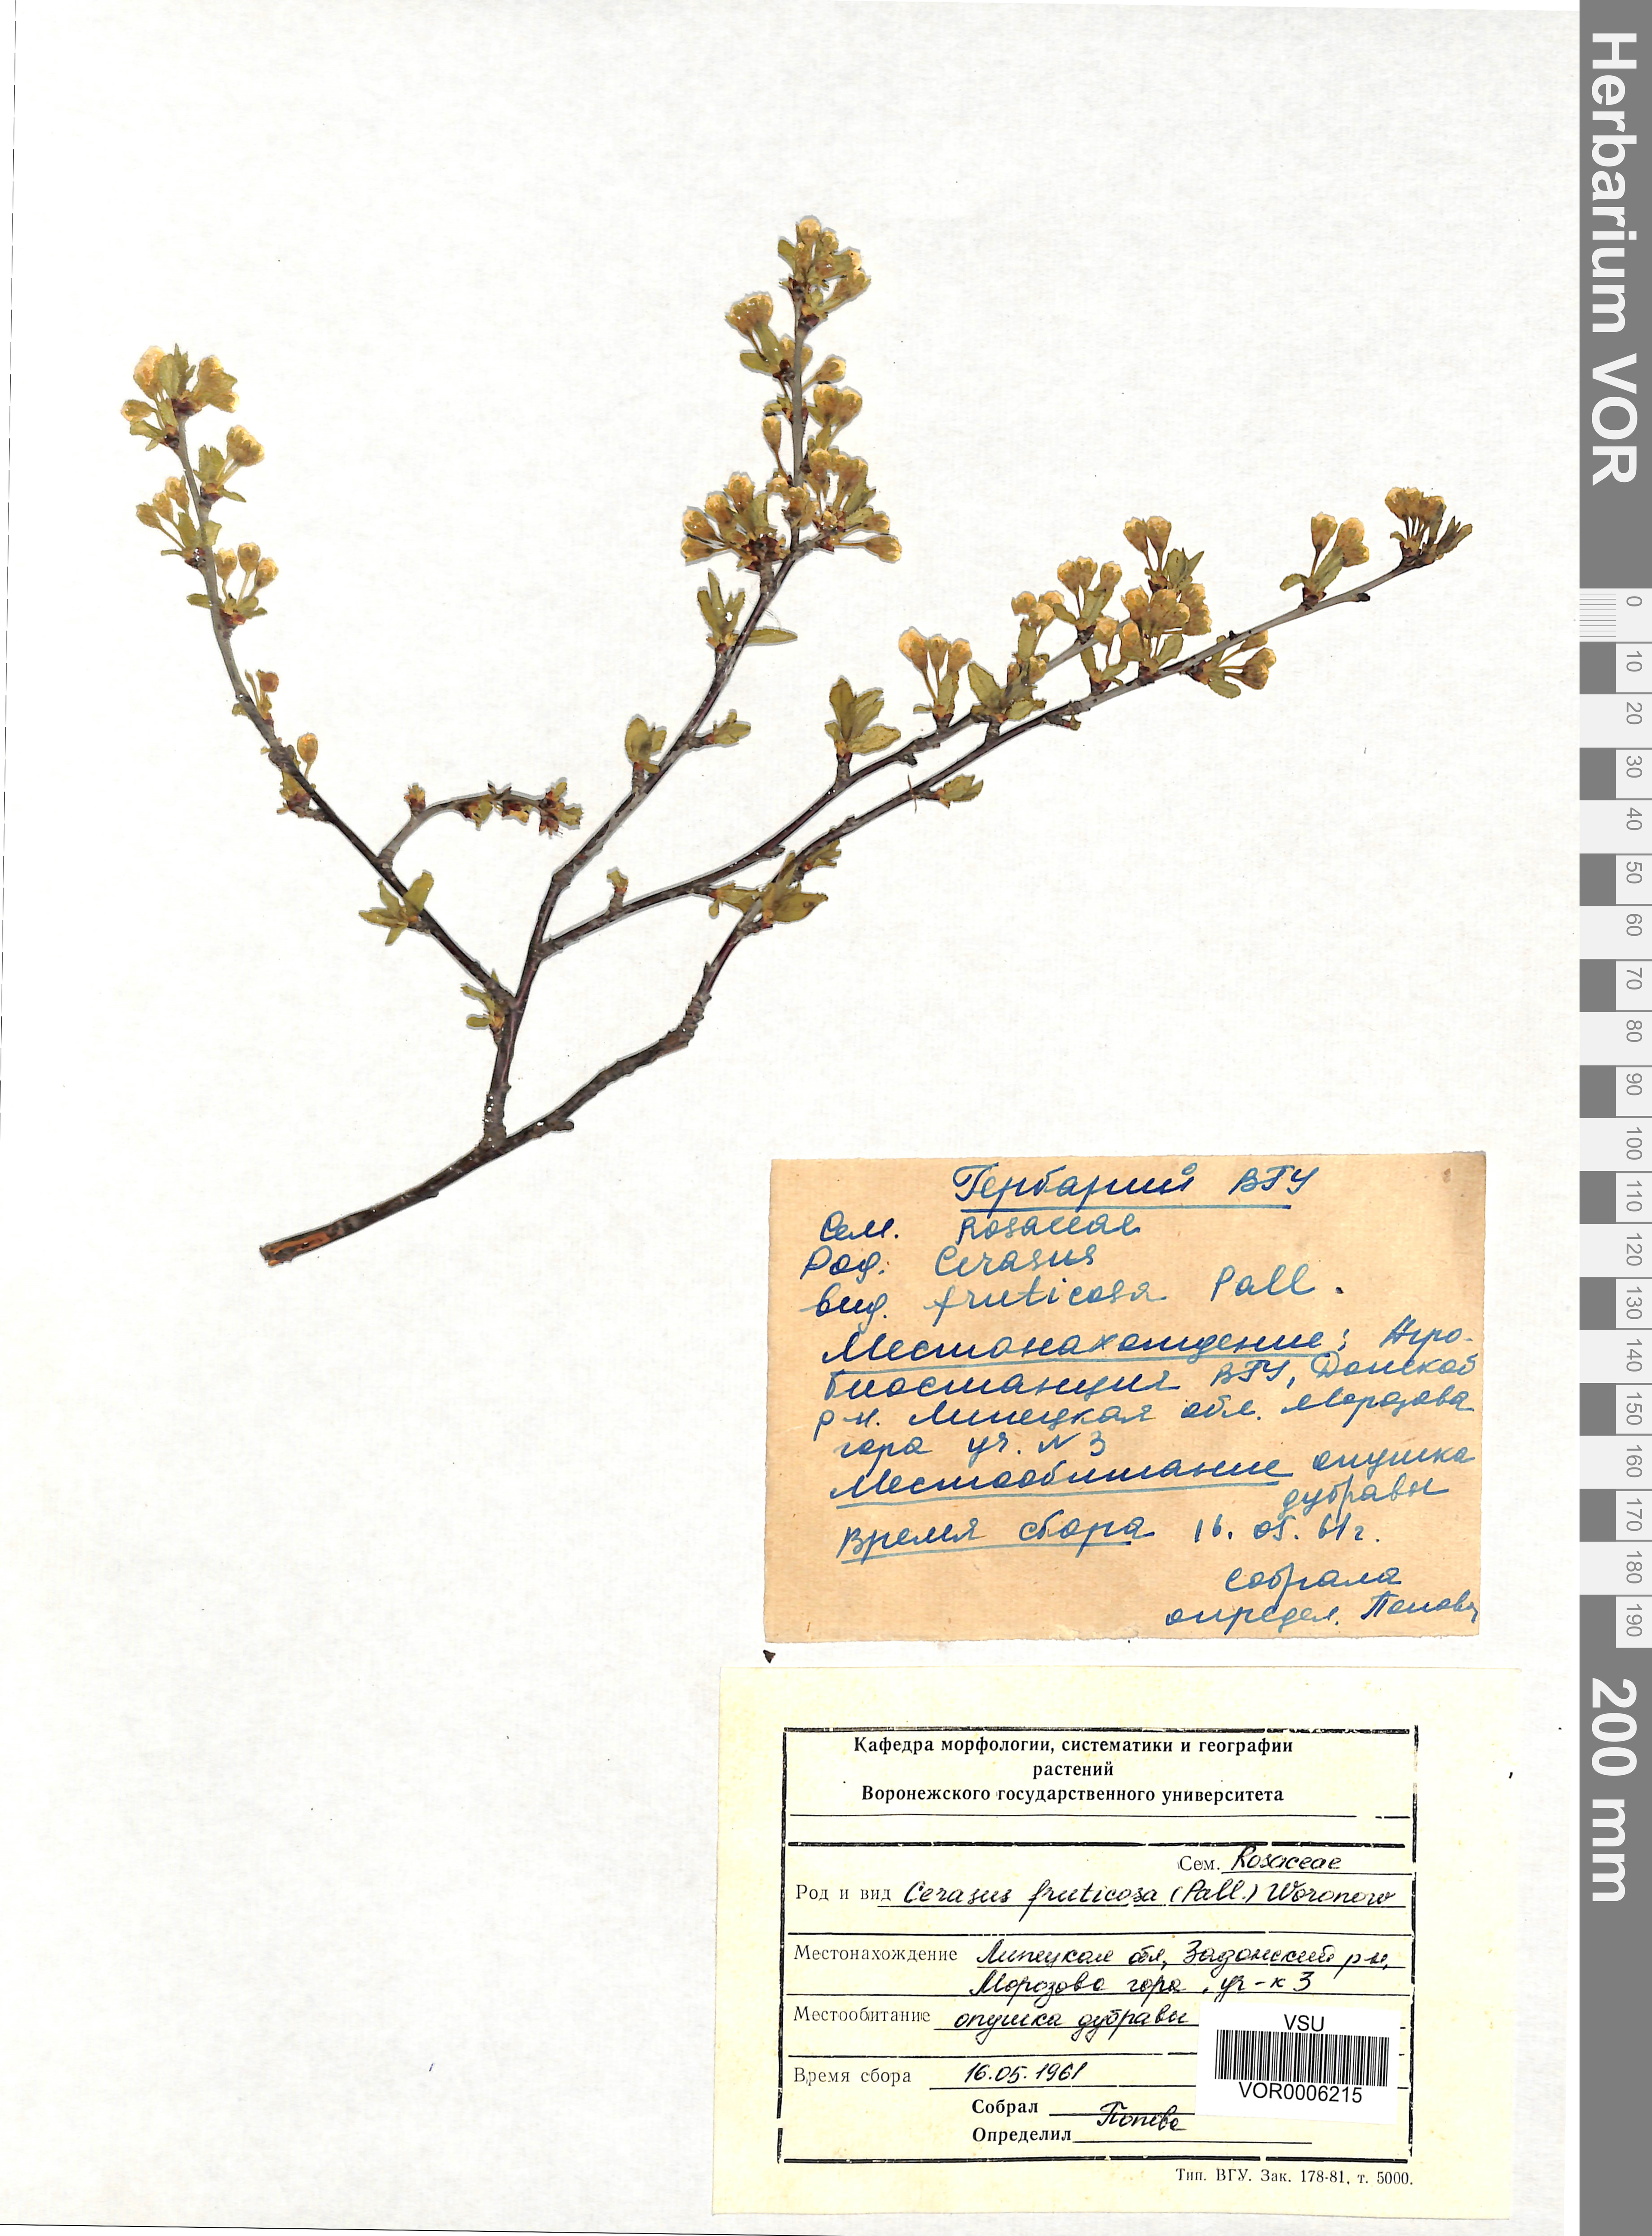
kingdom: Plantae
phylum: Tracheophyta
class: Magnoliopsida
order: Rosales
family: Rosaceae
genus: Prunus
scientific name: Prunus fruticosa
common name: European dwarf cherry
